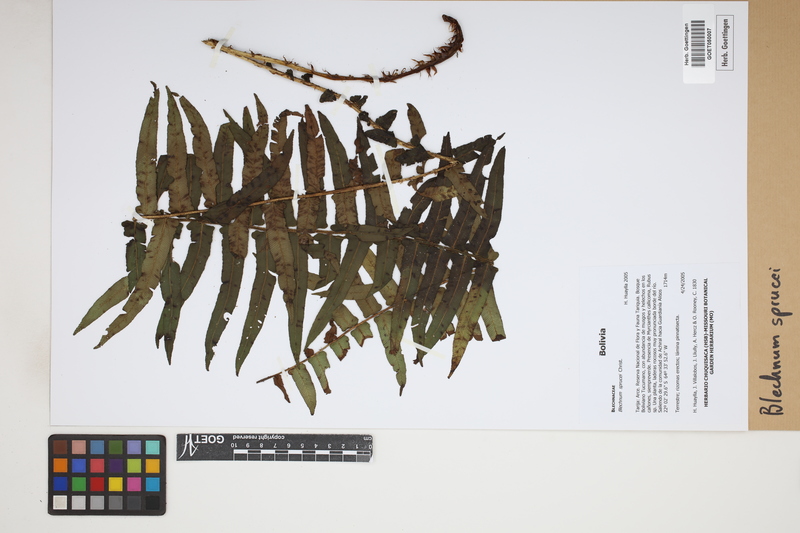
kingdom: Plantae
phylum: Tracheophyta
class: Polypodiopsida
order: Polypodiales
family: Blechnaceae
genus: Cranfillia
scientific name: Cranfillia caudata
